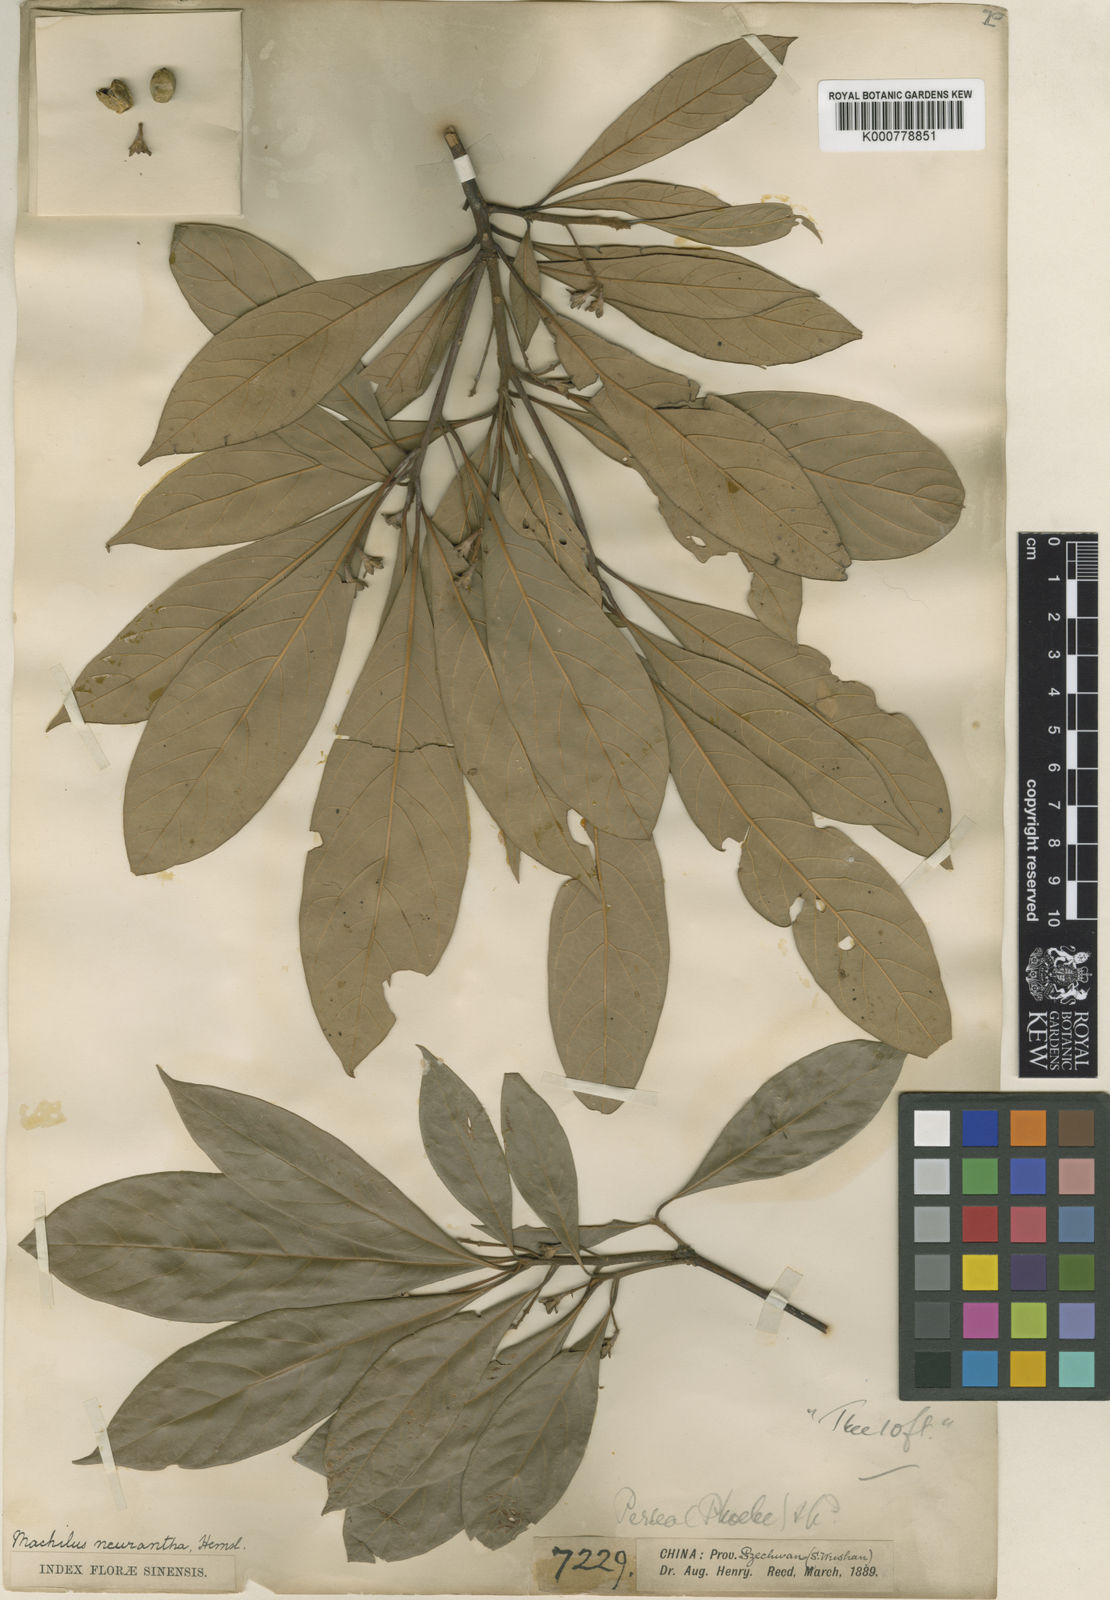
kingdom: Plantae
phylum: Tracheophyta
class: Magnoliopsida
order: Laurales
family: Lauraceae
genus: Phoebe
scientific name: Phoebe neurantha
